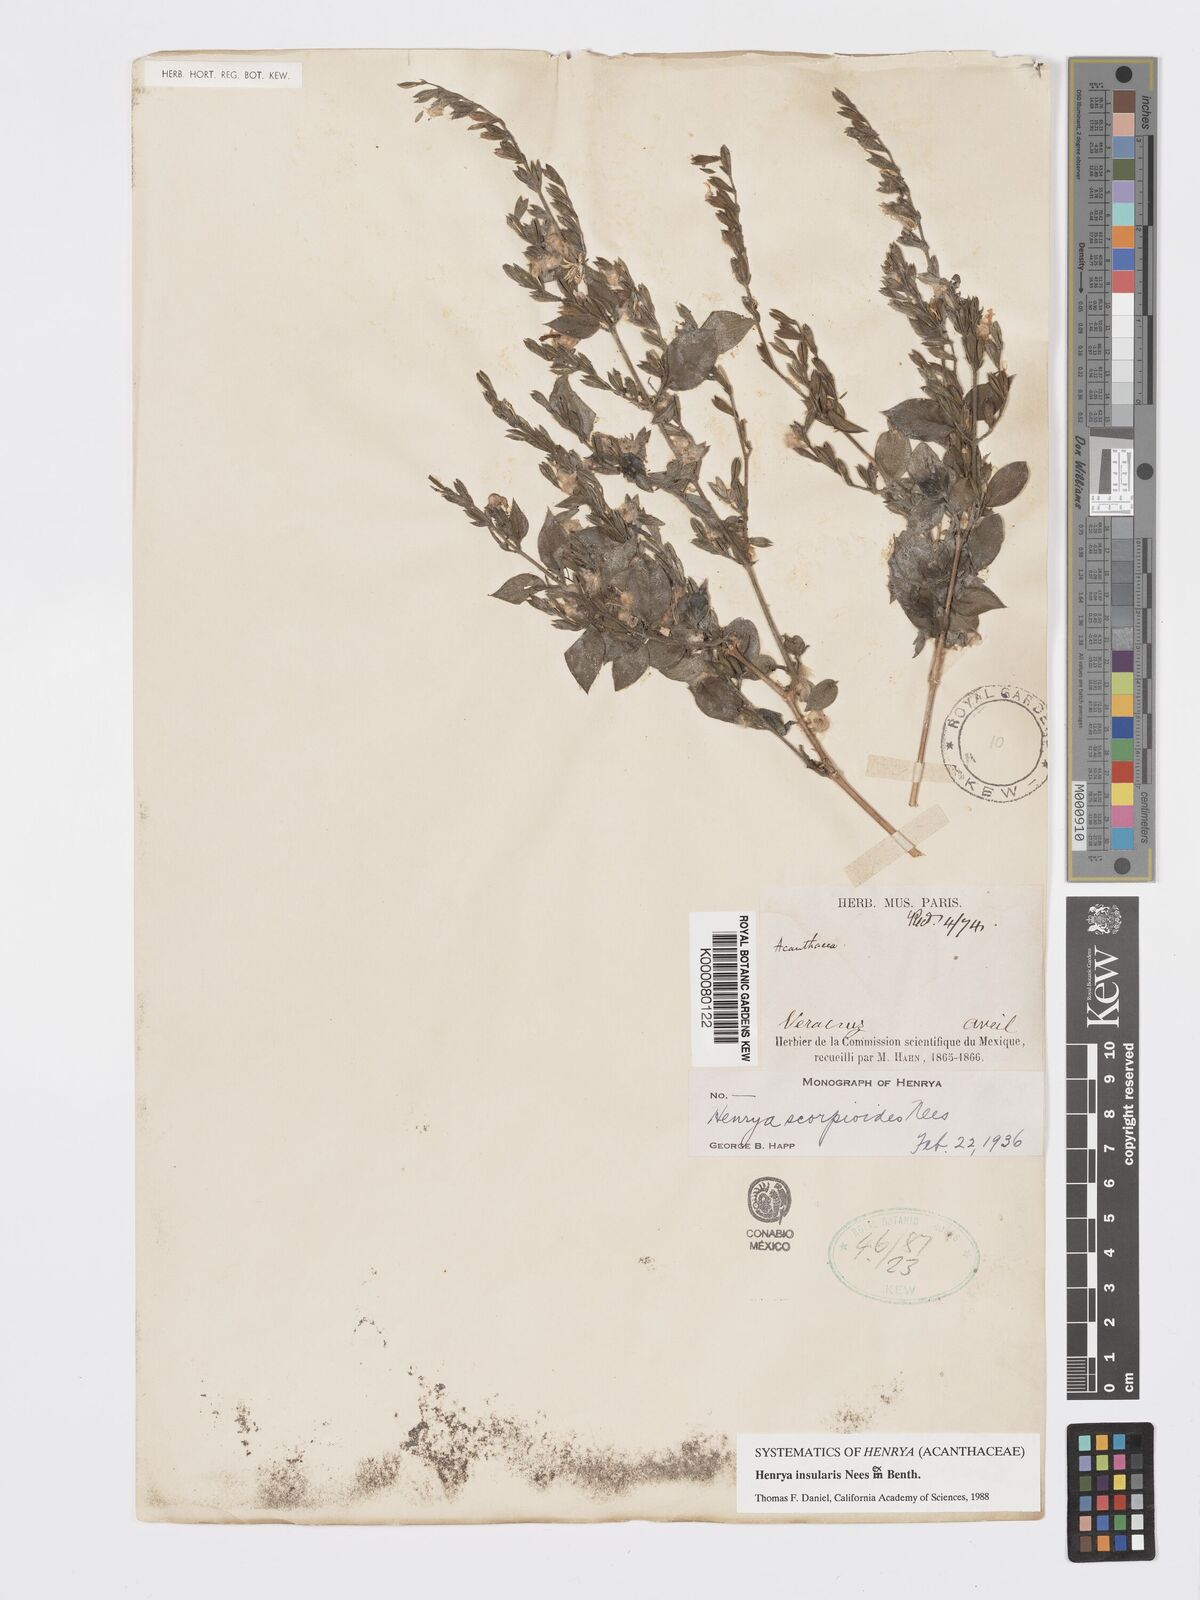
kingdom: Plantae
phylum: Tracheophyta
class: Magnoliopsida
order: Lamiales
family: Acanthaceae
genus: Henrya
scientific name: Henrya
